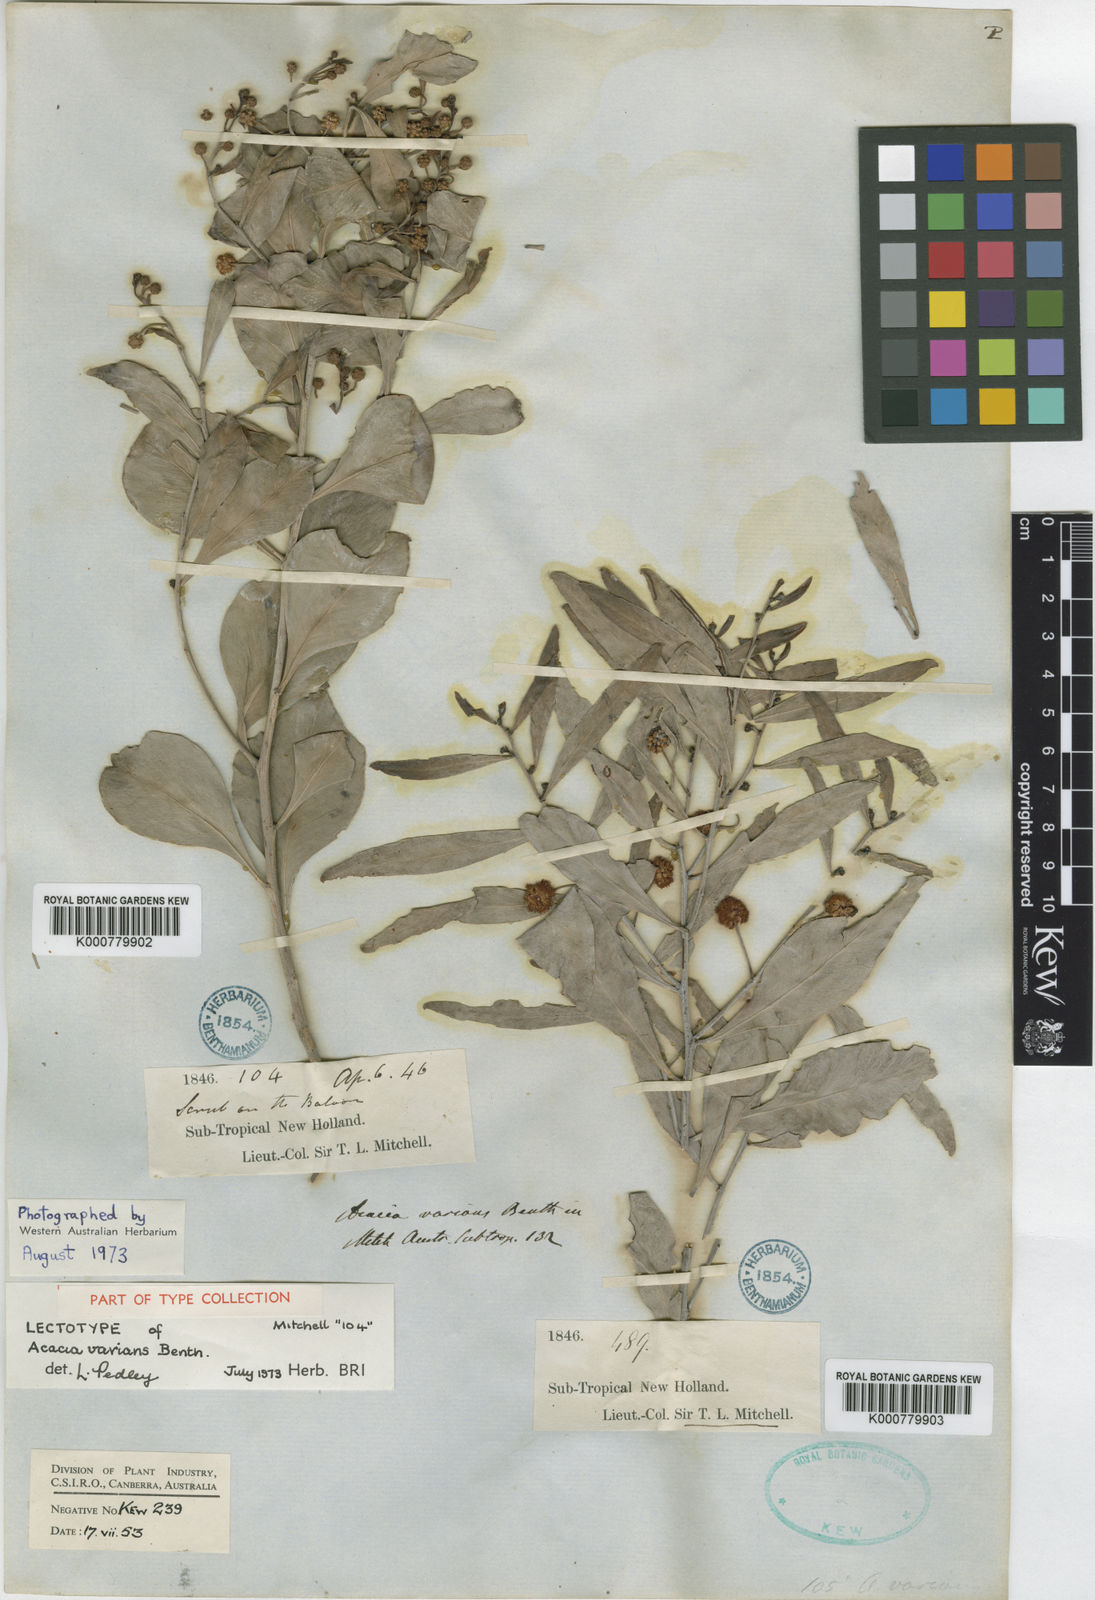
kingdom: Plantae
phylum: Tracheophyta
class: Magnoliopsida
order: Fabales
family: Fabaceae
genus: Acacia
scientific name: Acacia salicina
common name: Broughton willow wattle
